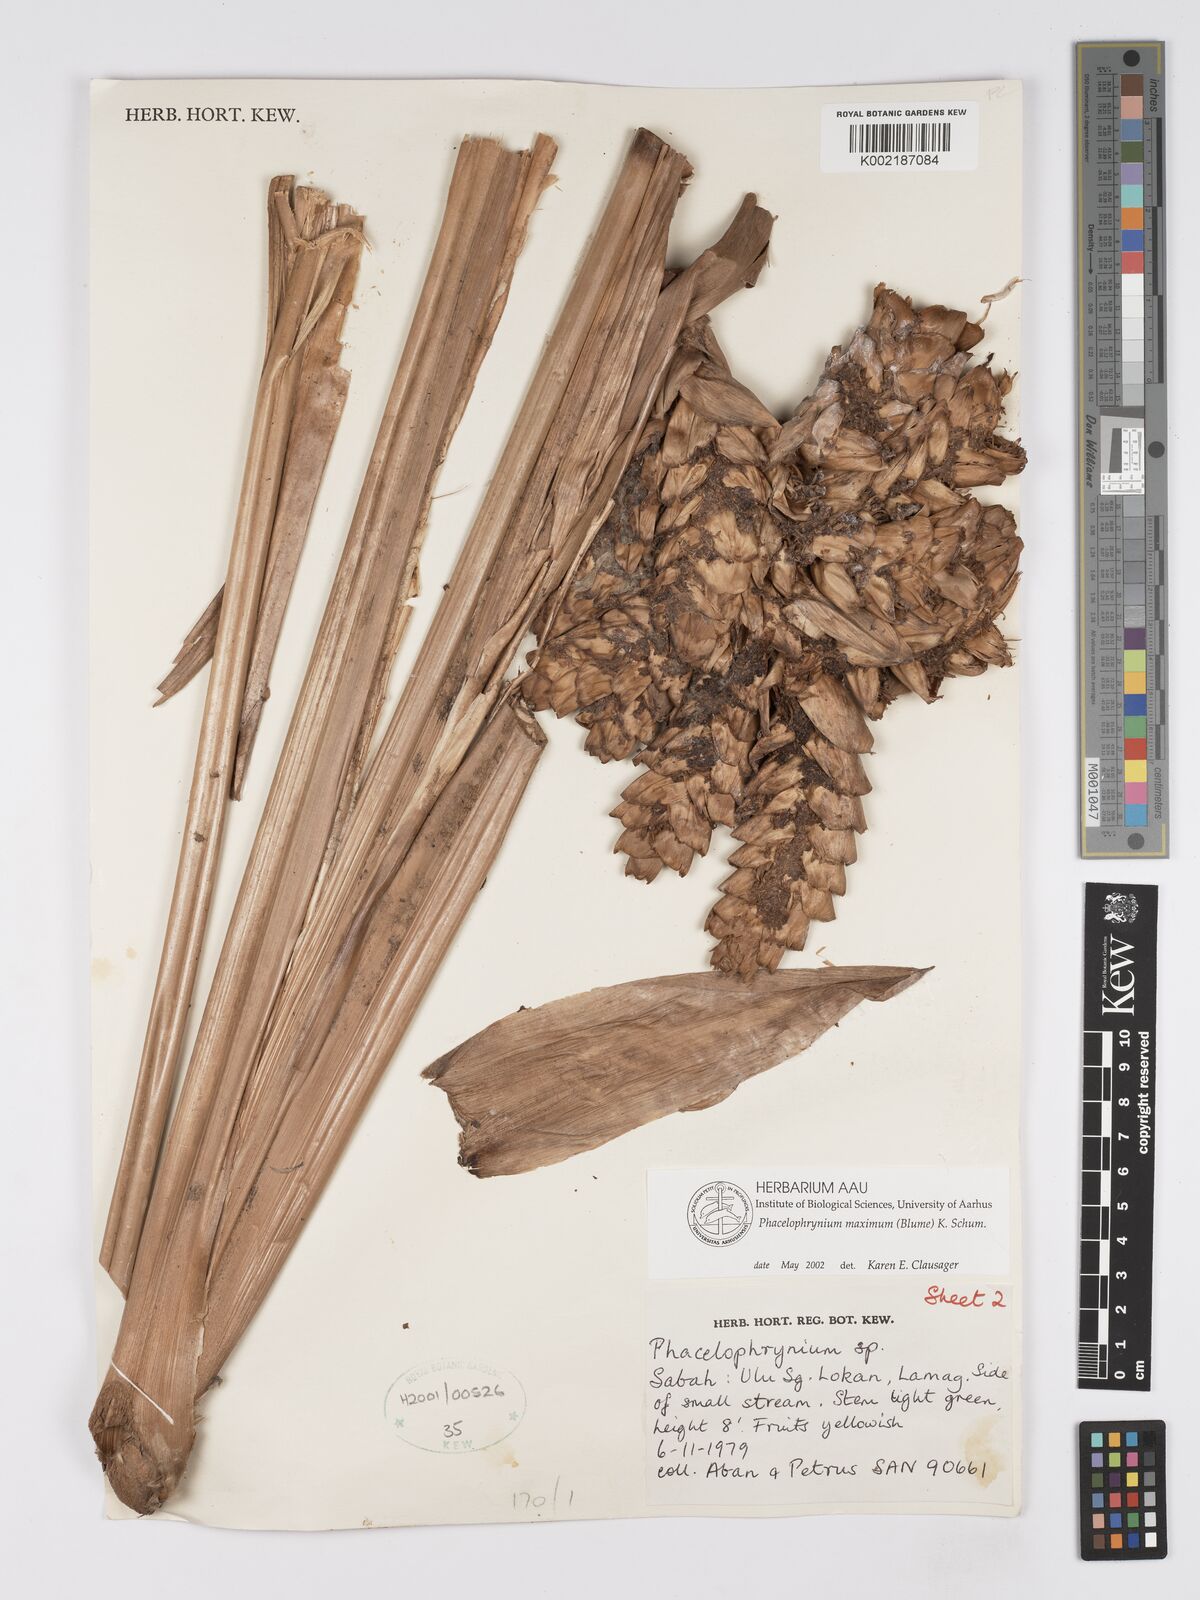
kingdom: Plantae
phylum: Tracheophyta
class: Liliopsida
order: Zingiberales
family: Marantaceae
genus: Phrynium
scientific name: Phrynium maximum
